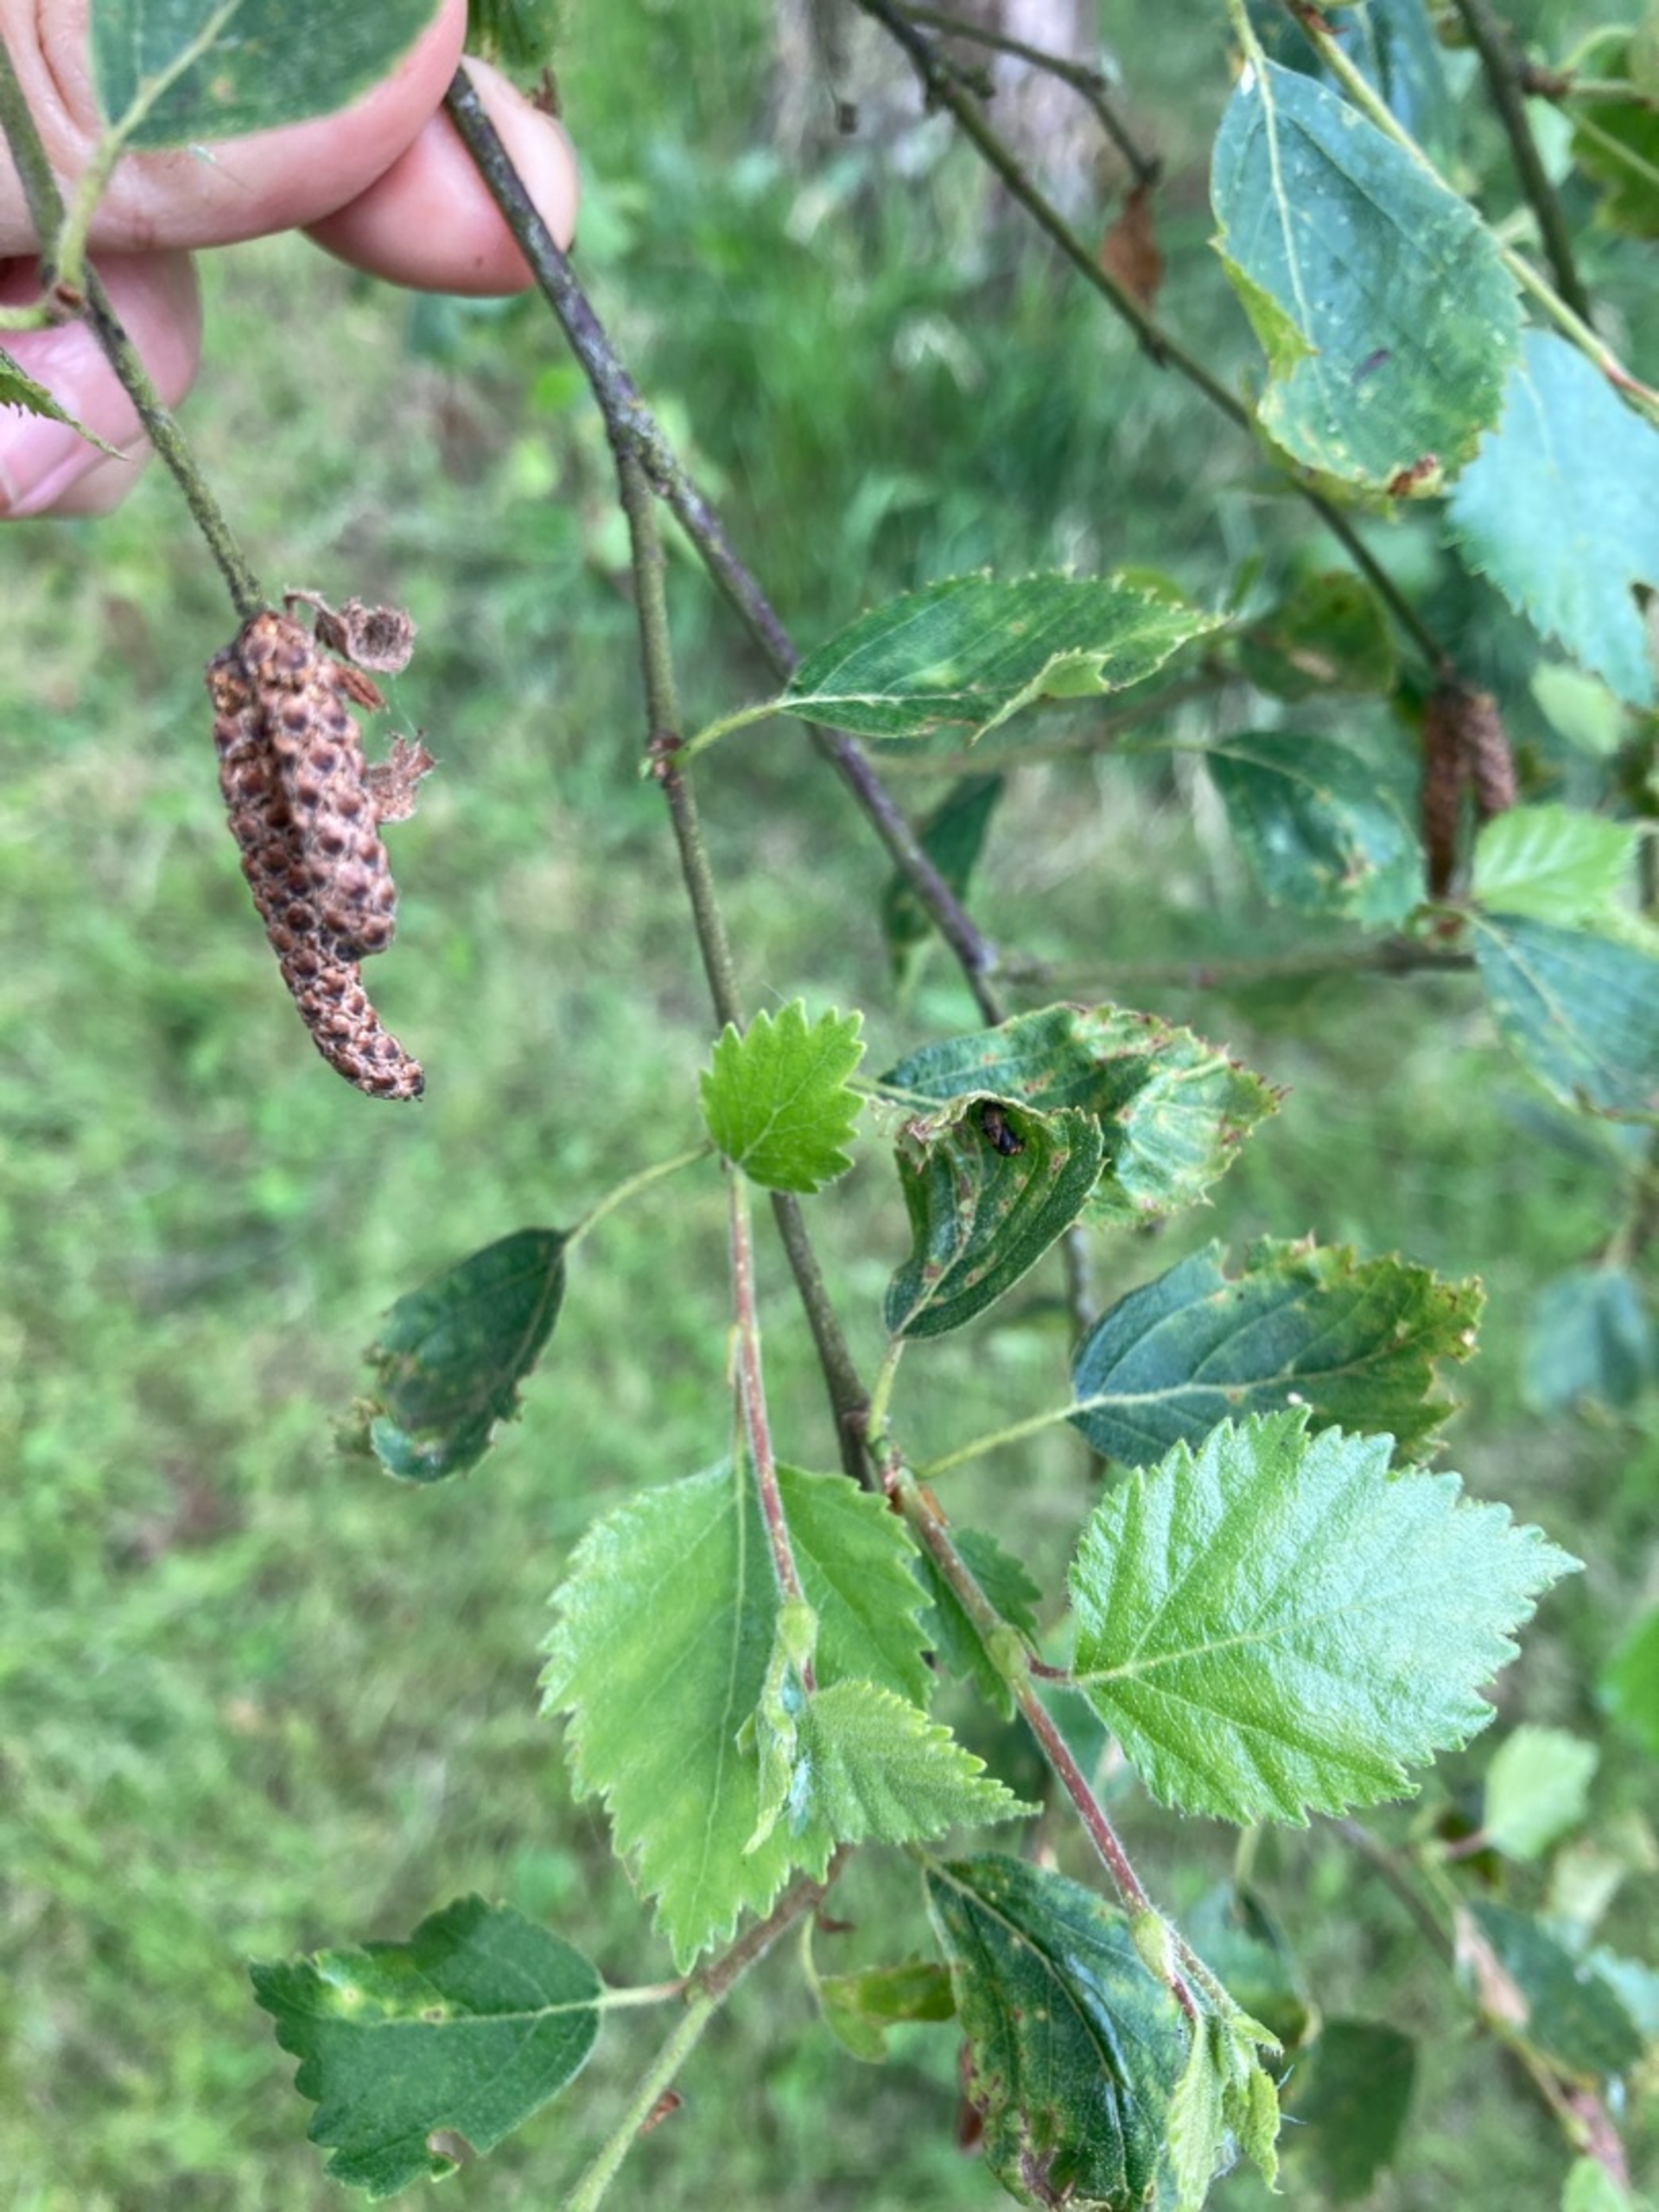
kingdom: Plantae
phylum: Tracheophyta
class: Magnoliopsida
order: Fagales
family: Betulaceae
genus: Betula
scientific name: Betula pubescens
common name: Dun-birk
